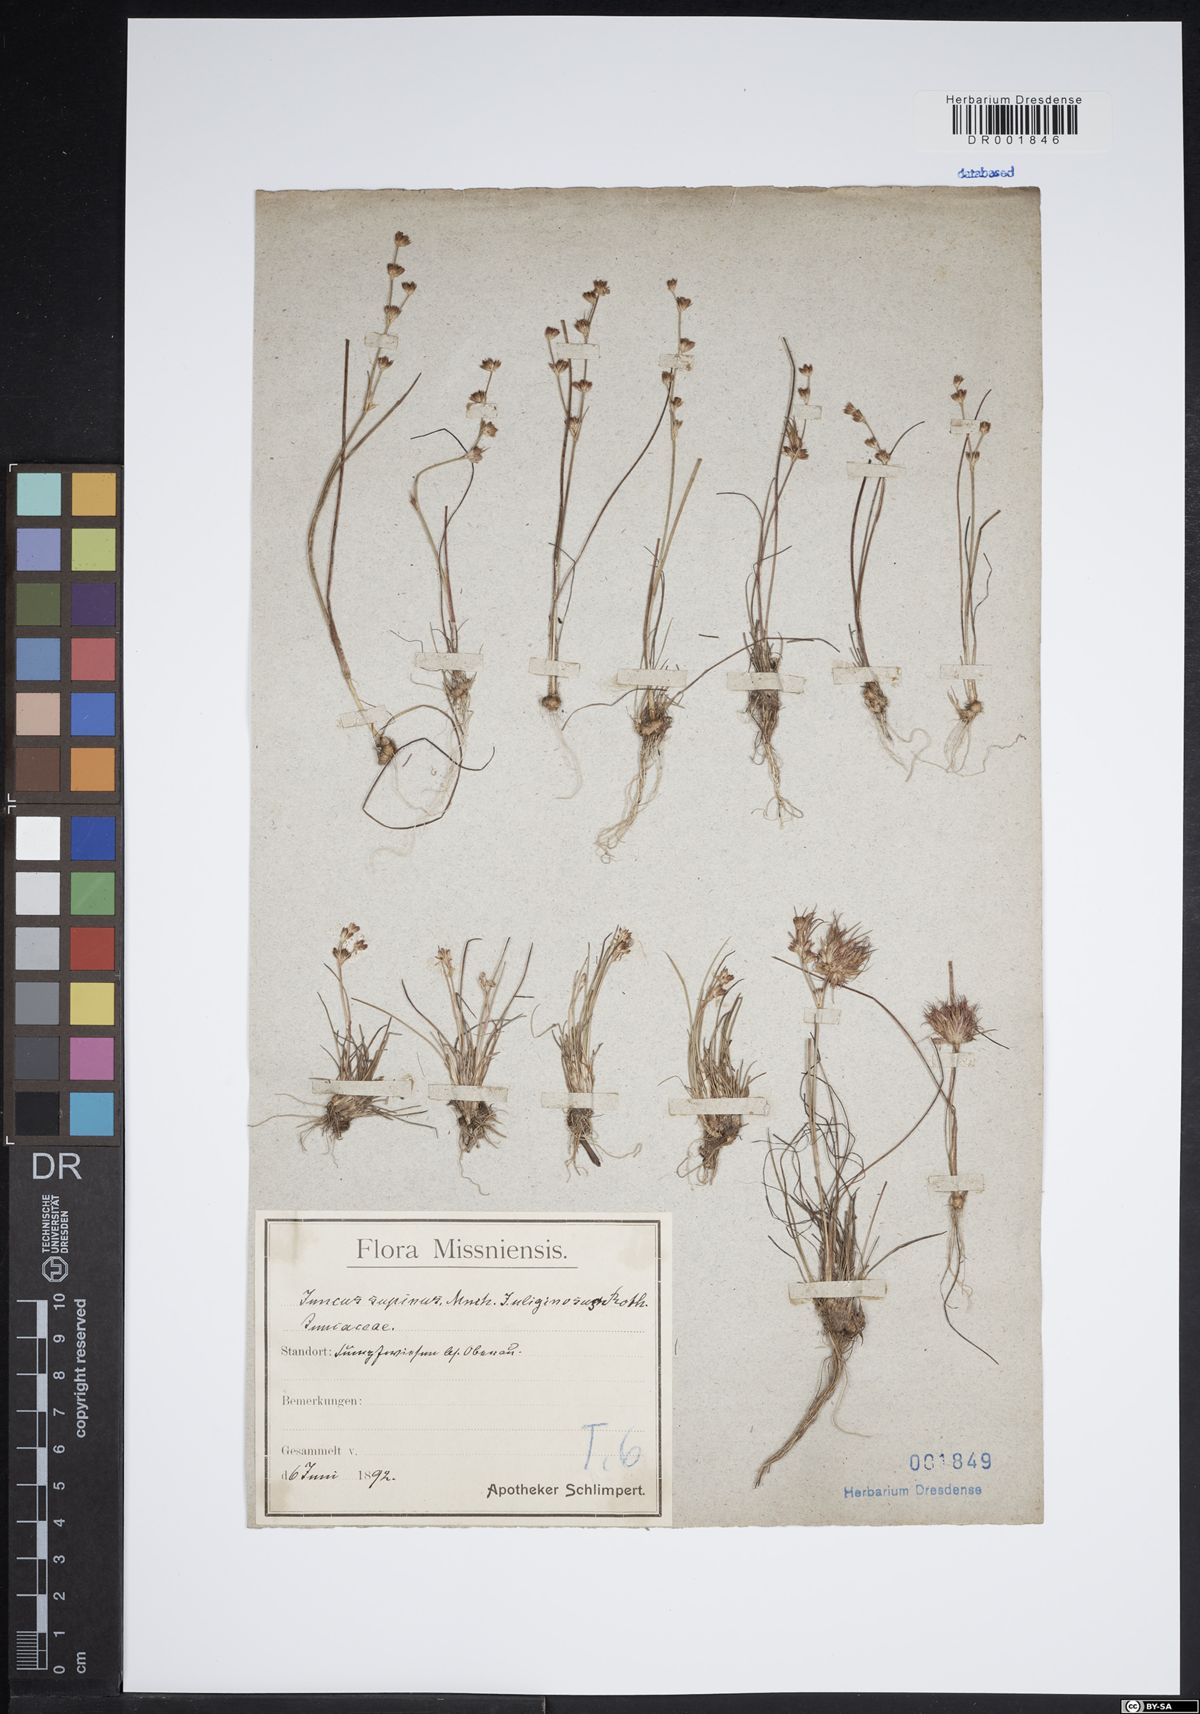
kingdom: Plantae
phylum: Tracheophyta
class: Liliopsida
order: Poales
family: Juncaceae
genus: Juncus
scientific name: Juncus bulbosus
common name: Bulbous rush
